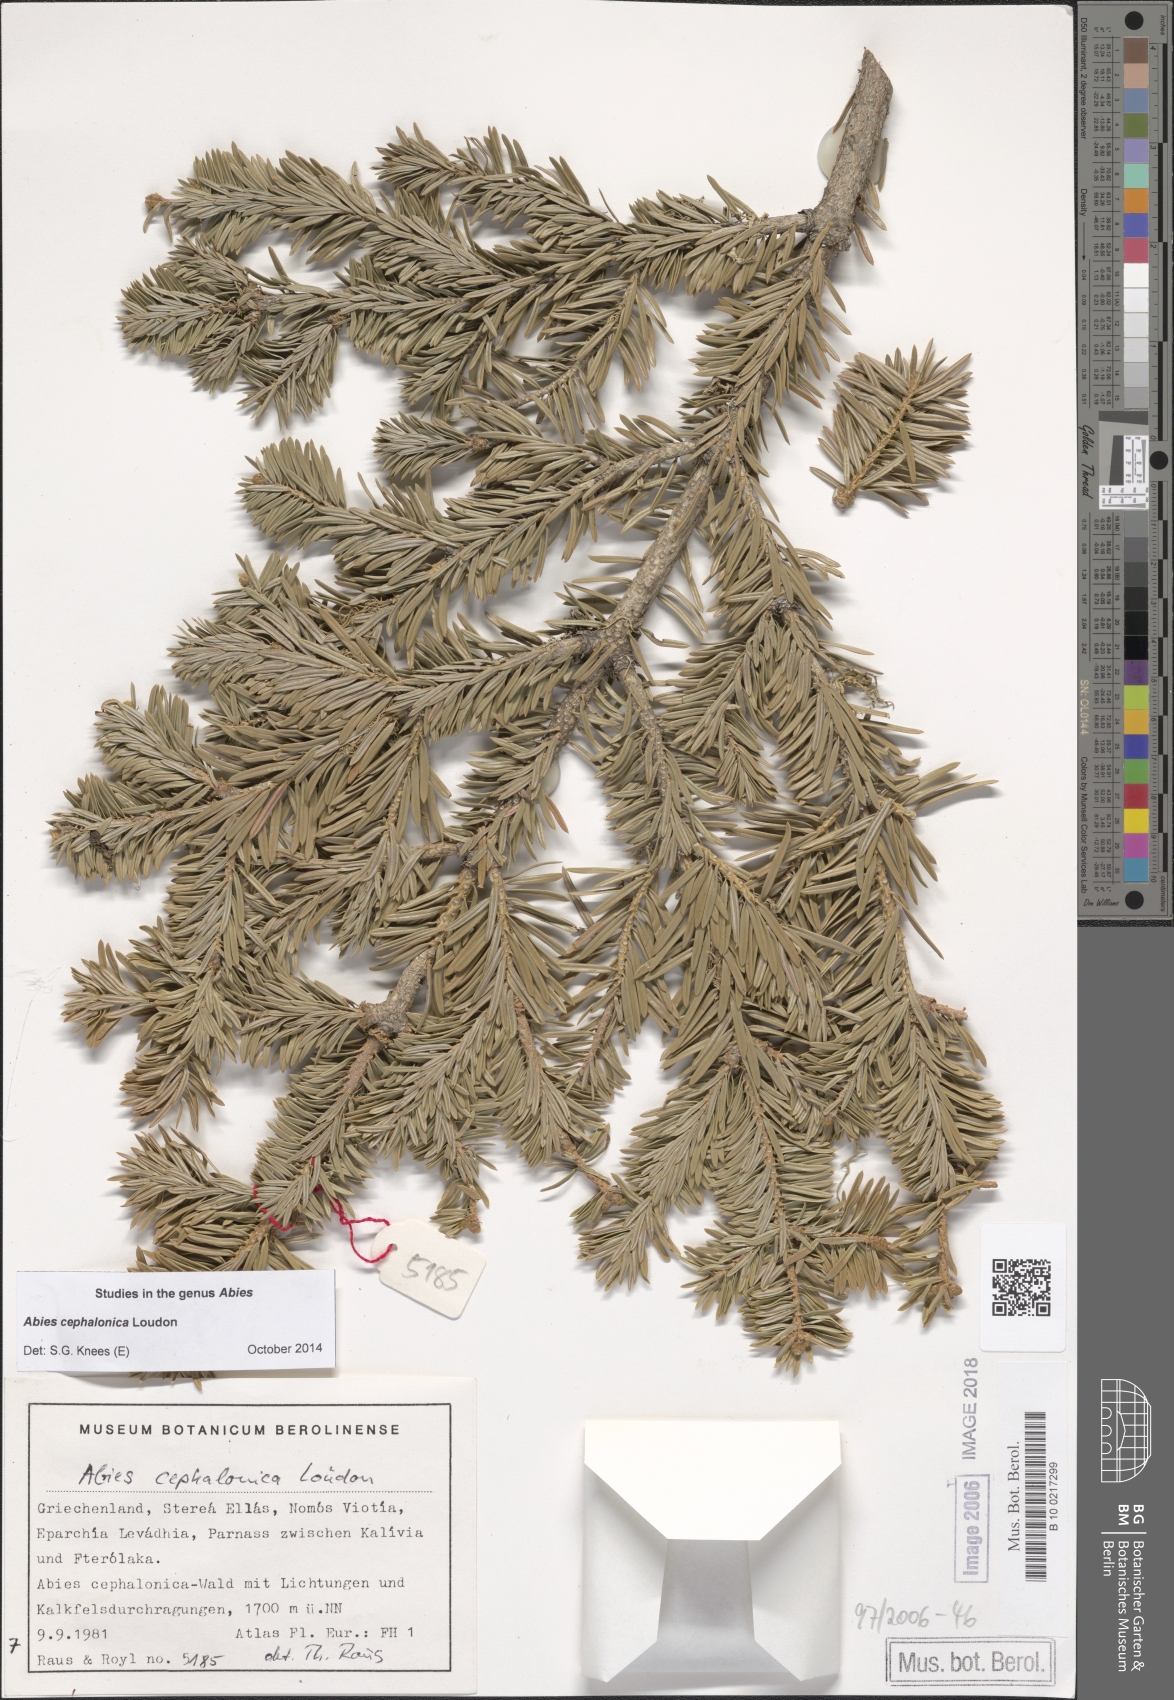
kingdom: Plantae
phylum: Tracheophyta
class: Pinopsida
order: Pinales
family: Pinaceae
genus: Abies
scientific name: Abies cephalonica
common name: Greek fir
